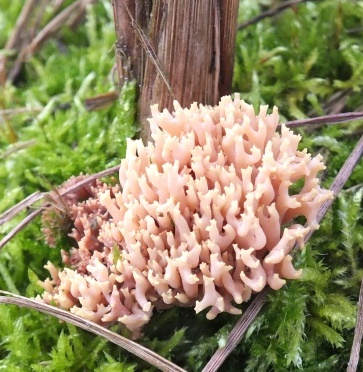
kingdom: Fungi
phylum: Basidiomycota
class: Agaricomycetes
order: Gomphales
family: Gomphaceae
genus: Ramaria
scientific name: Ramaria ammophila
